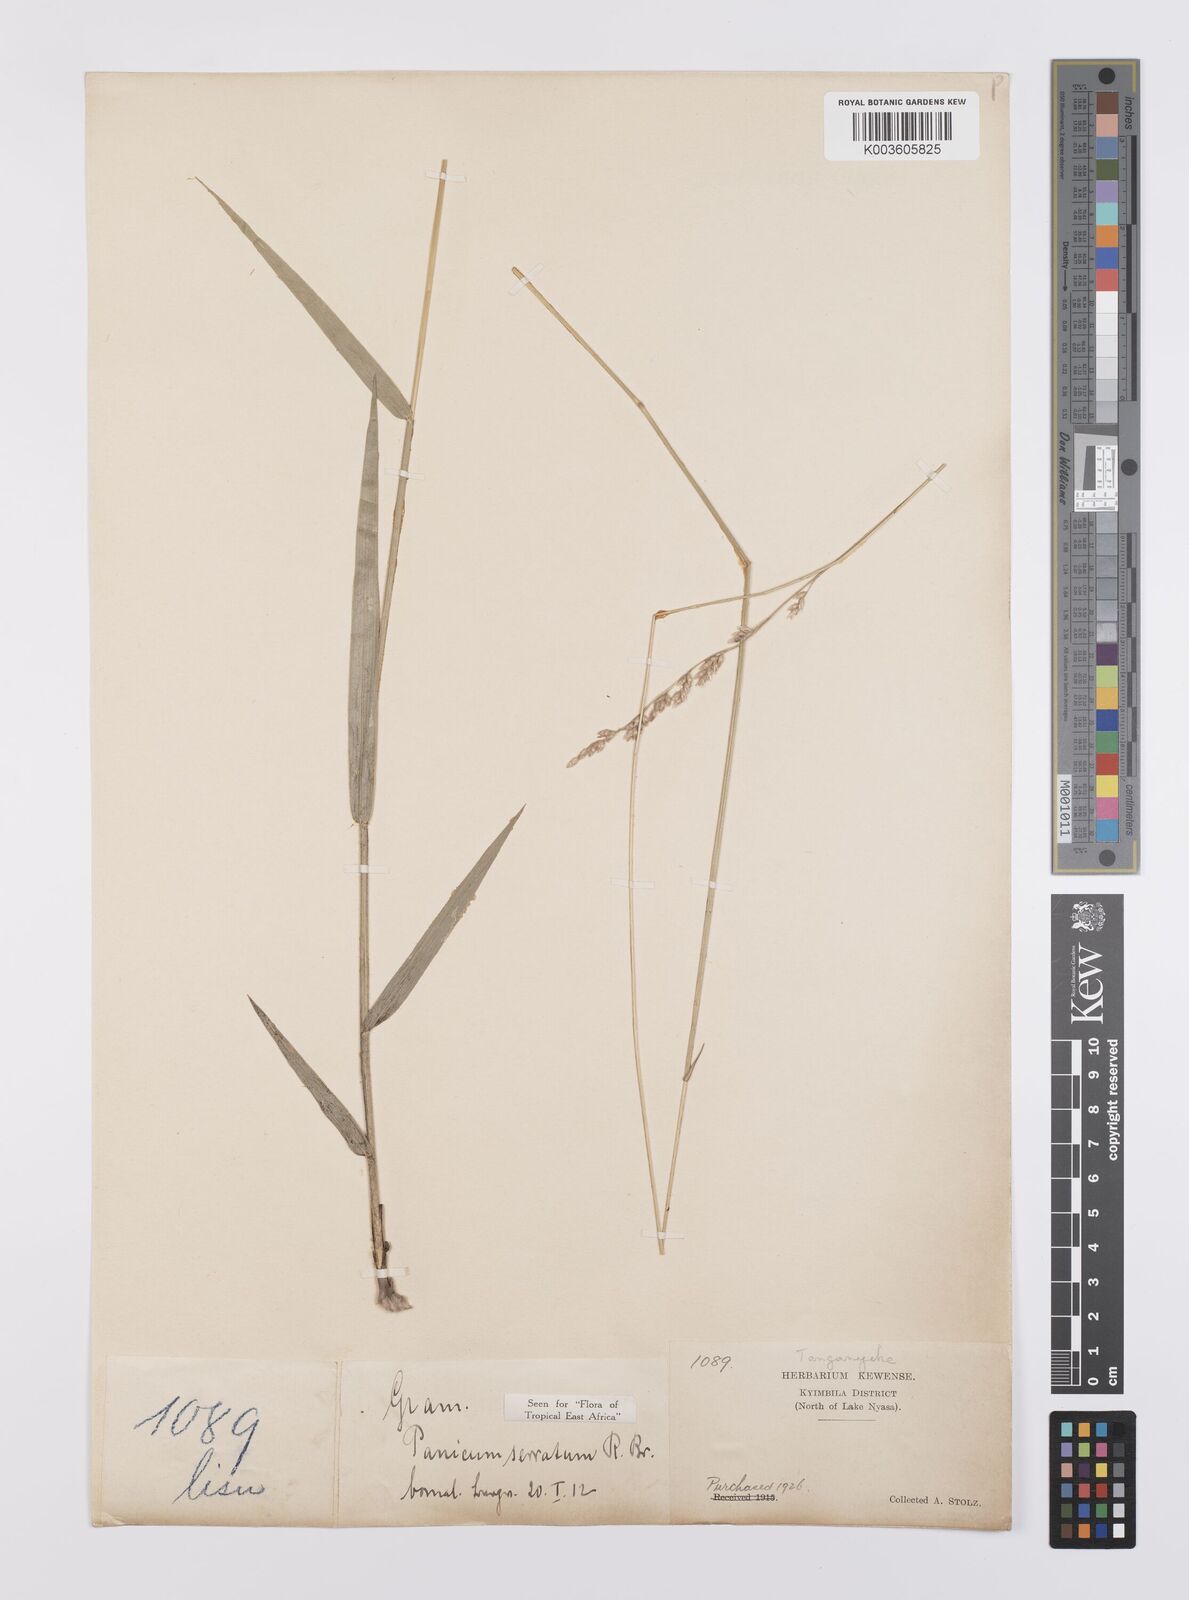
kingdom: Plantae
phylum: Tracheophyta
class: Liliopsida
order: Poales
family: Poaceae
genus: Urochloa
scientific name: Urochloa serrata
